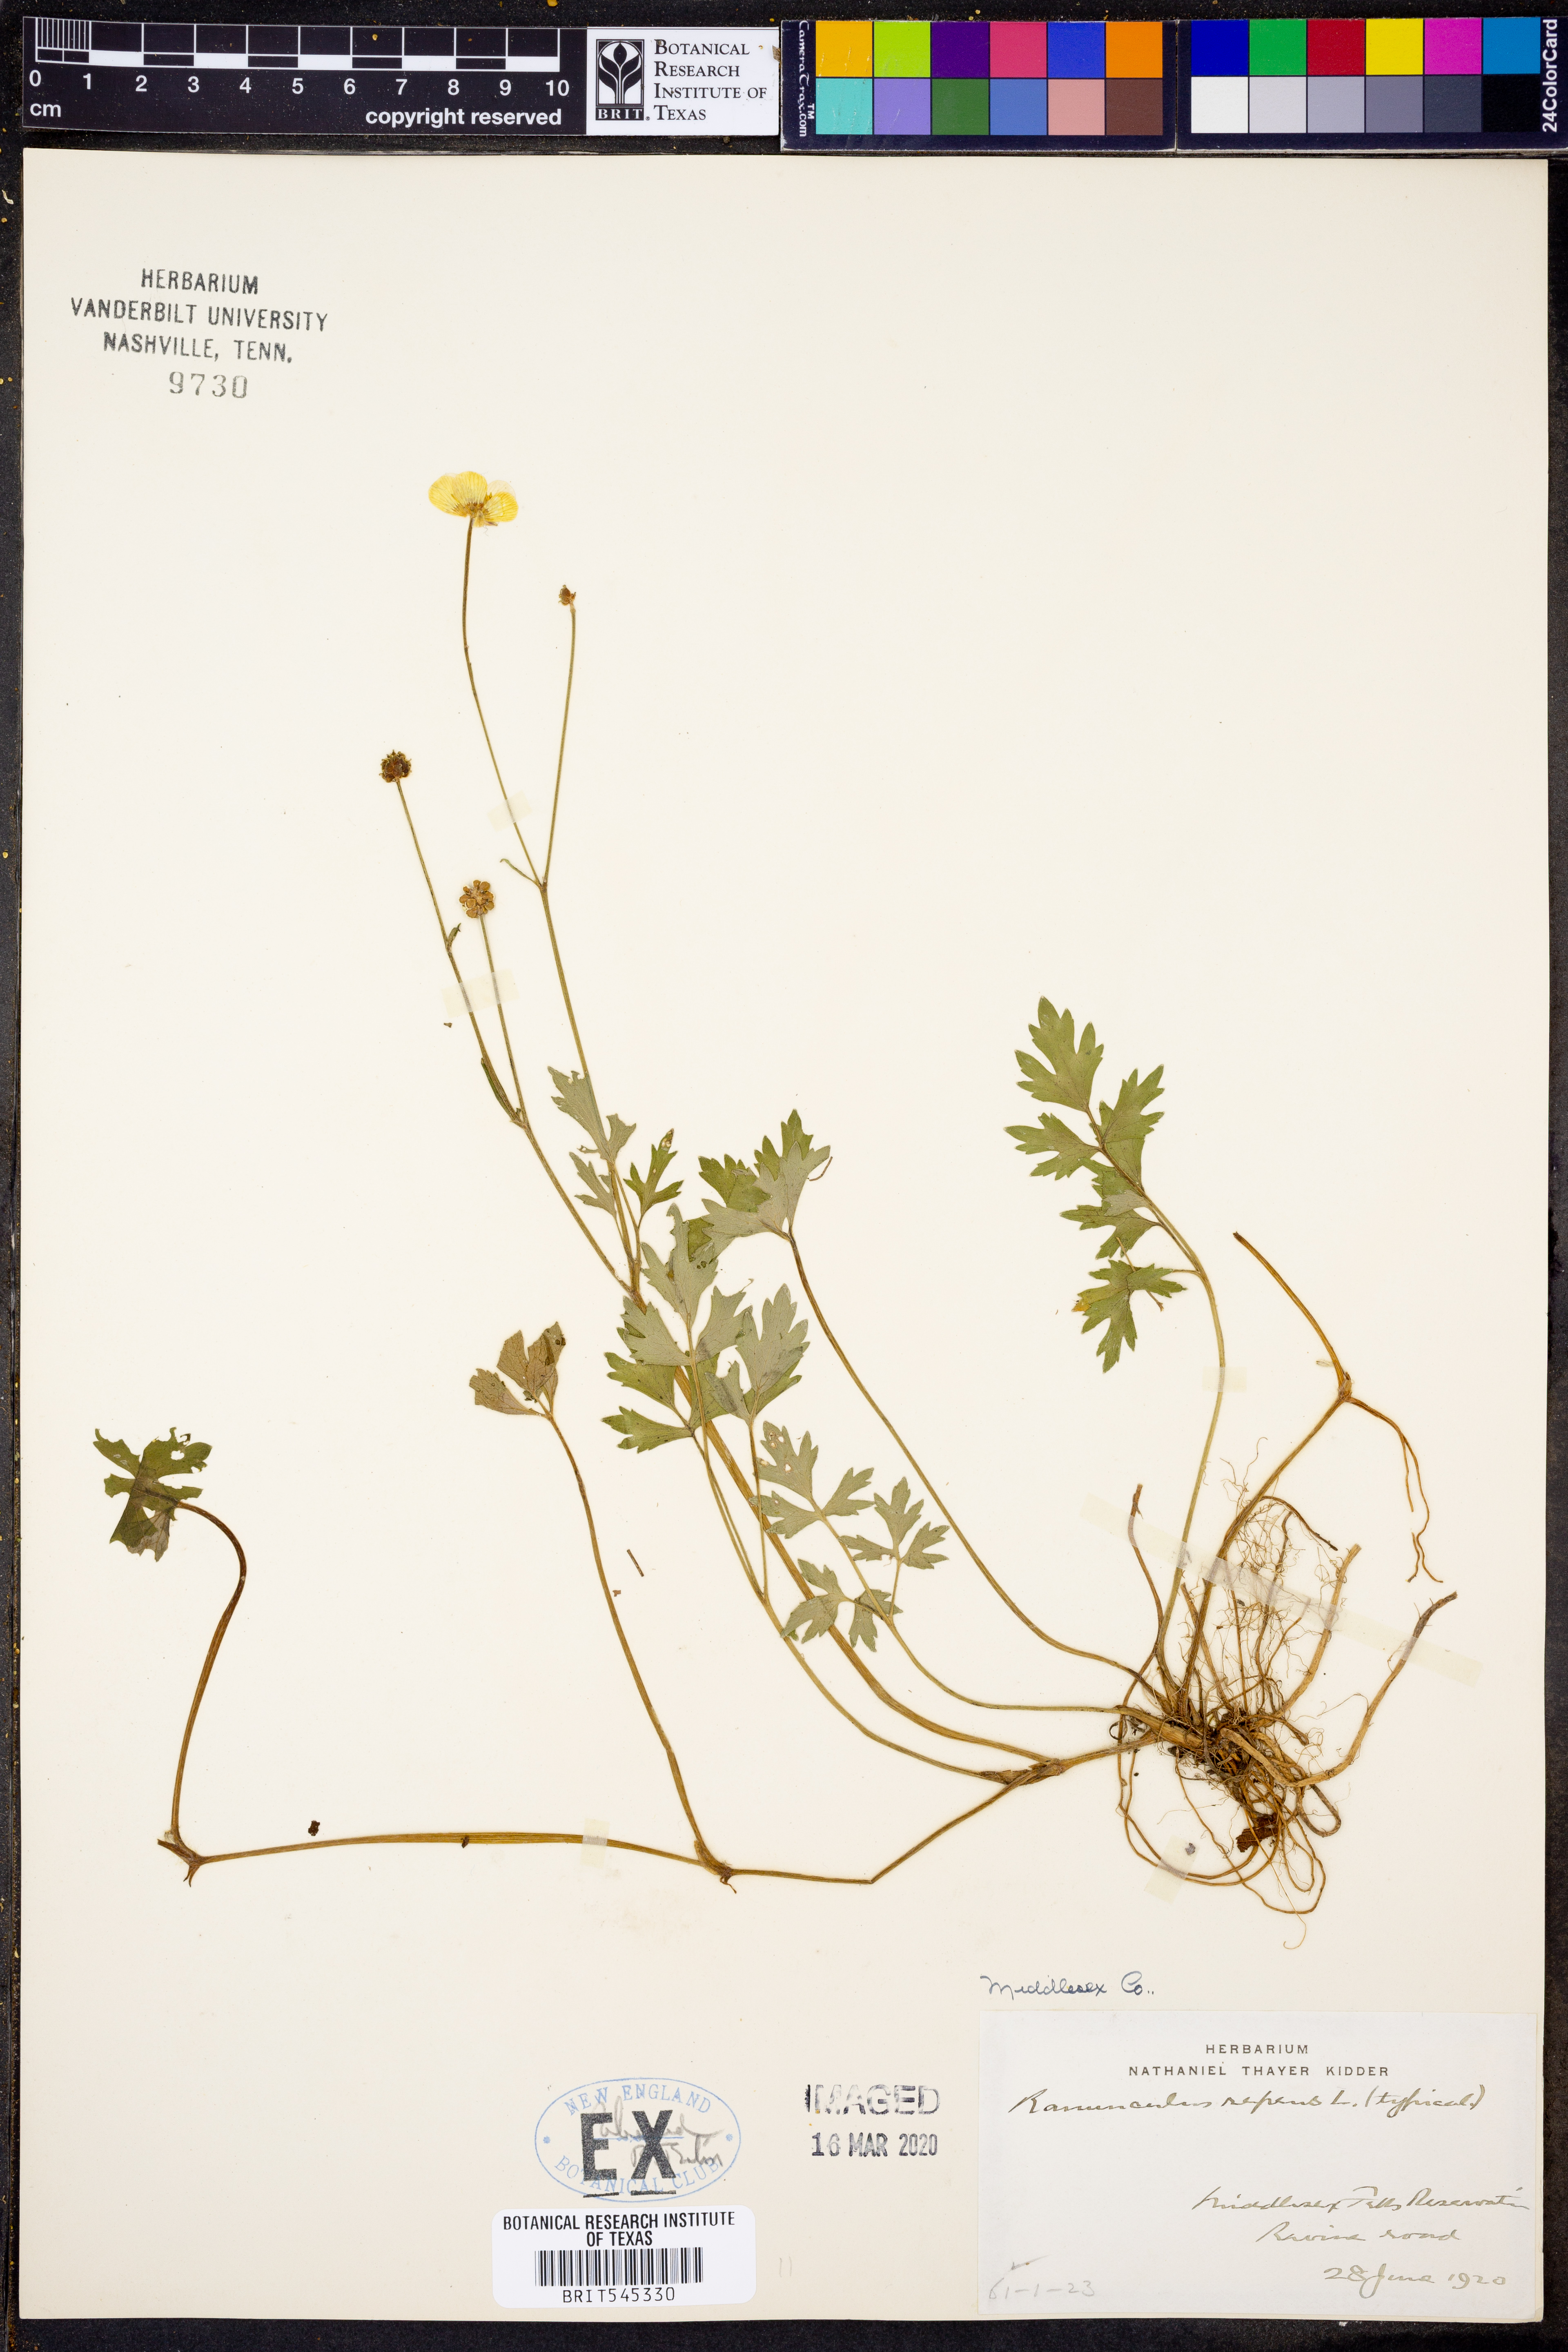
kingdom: Plantae
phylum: Tracheophyta
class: Magnoliopsida
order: Ranunculales
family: Ranunculaceae
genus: Ranunculus
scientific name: Ranunculus repens
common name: Creeping buttercup
